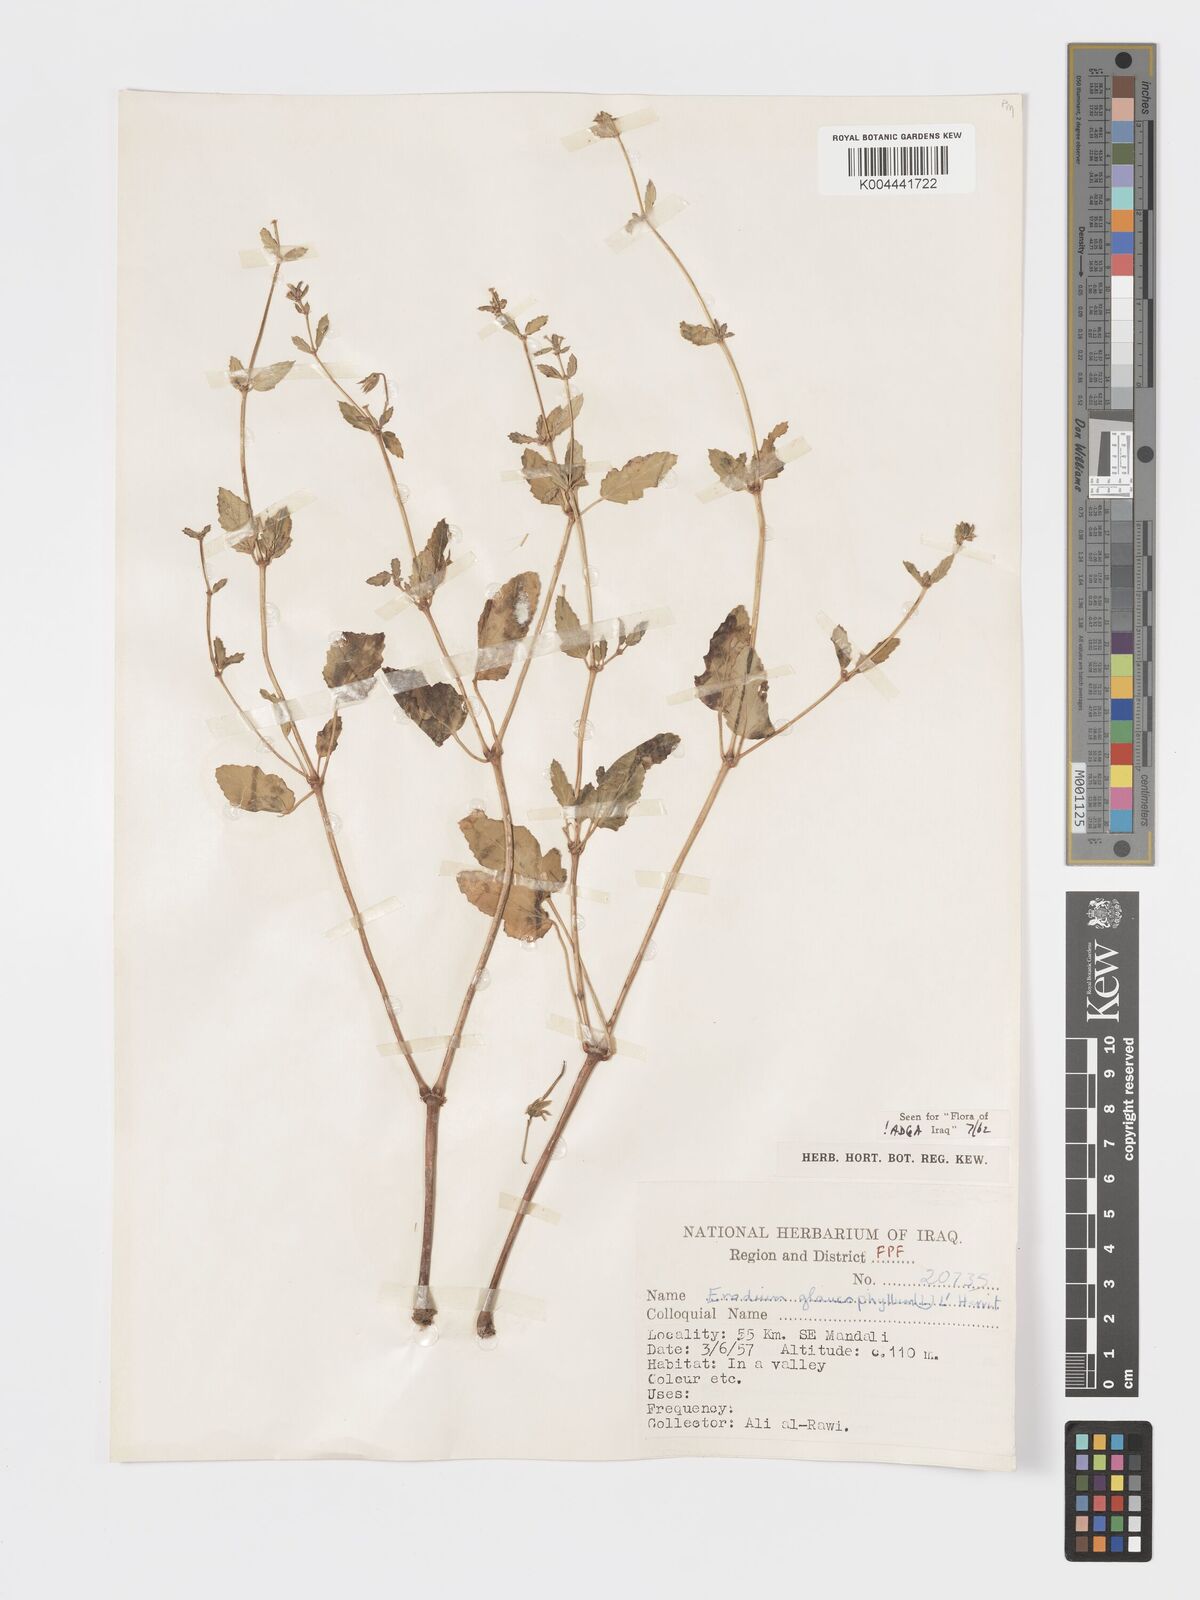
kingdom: Plantae
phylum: Tracheophyta
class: Magnoliopsida
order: Geraniales
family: Geraniaceae
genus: Erodium
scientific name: Erodium glaucophyllum
